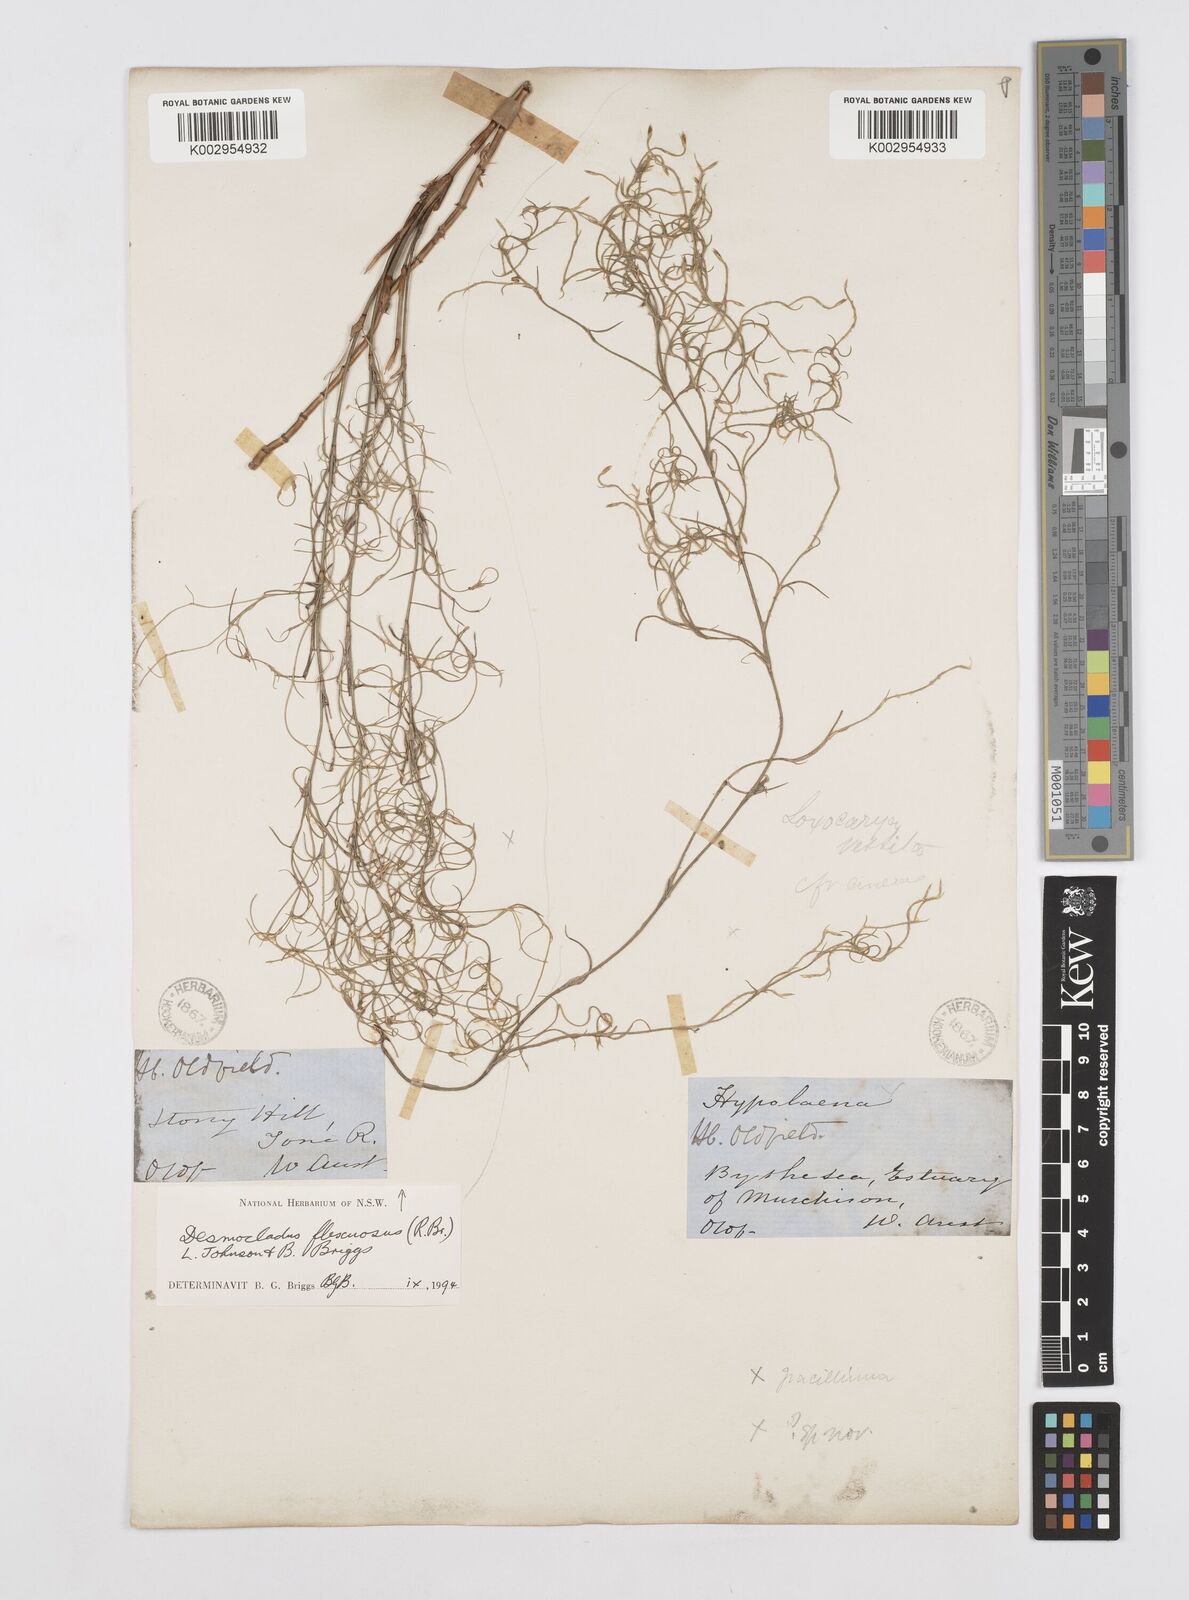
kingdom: Plantae
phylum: Tracheophyta
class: Liliopsida
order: Poales
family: Restionaceae
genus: Desmocladus
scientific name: Desmocladus flexuosus
